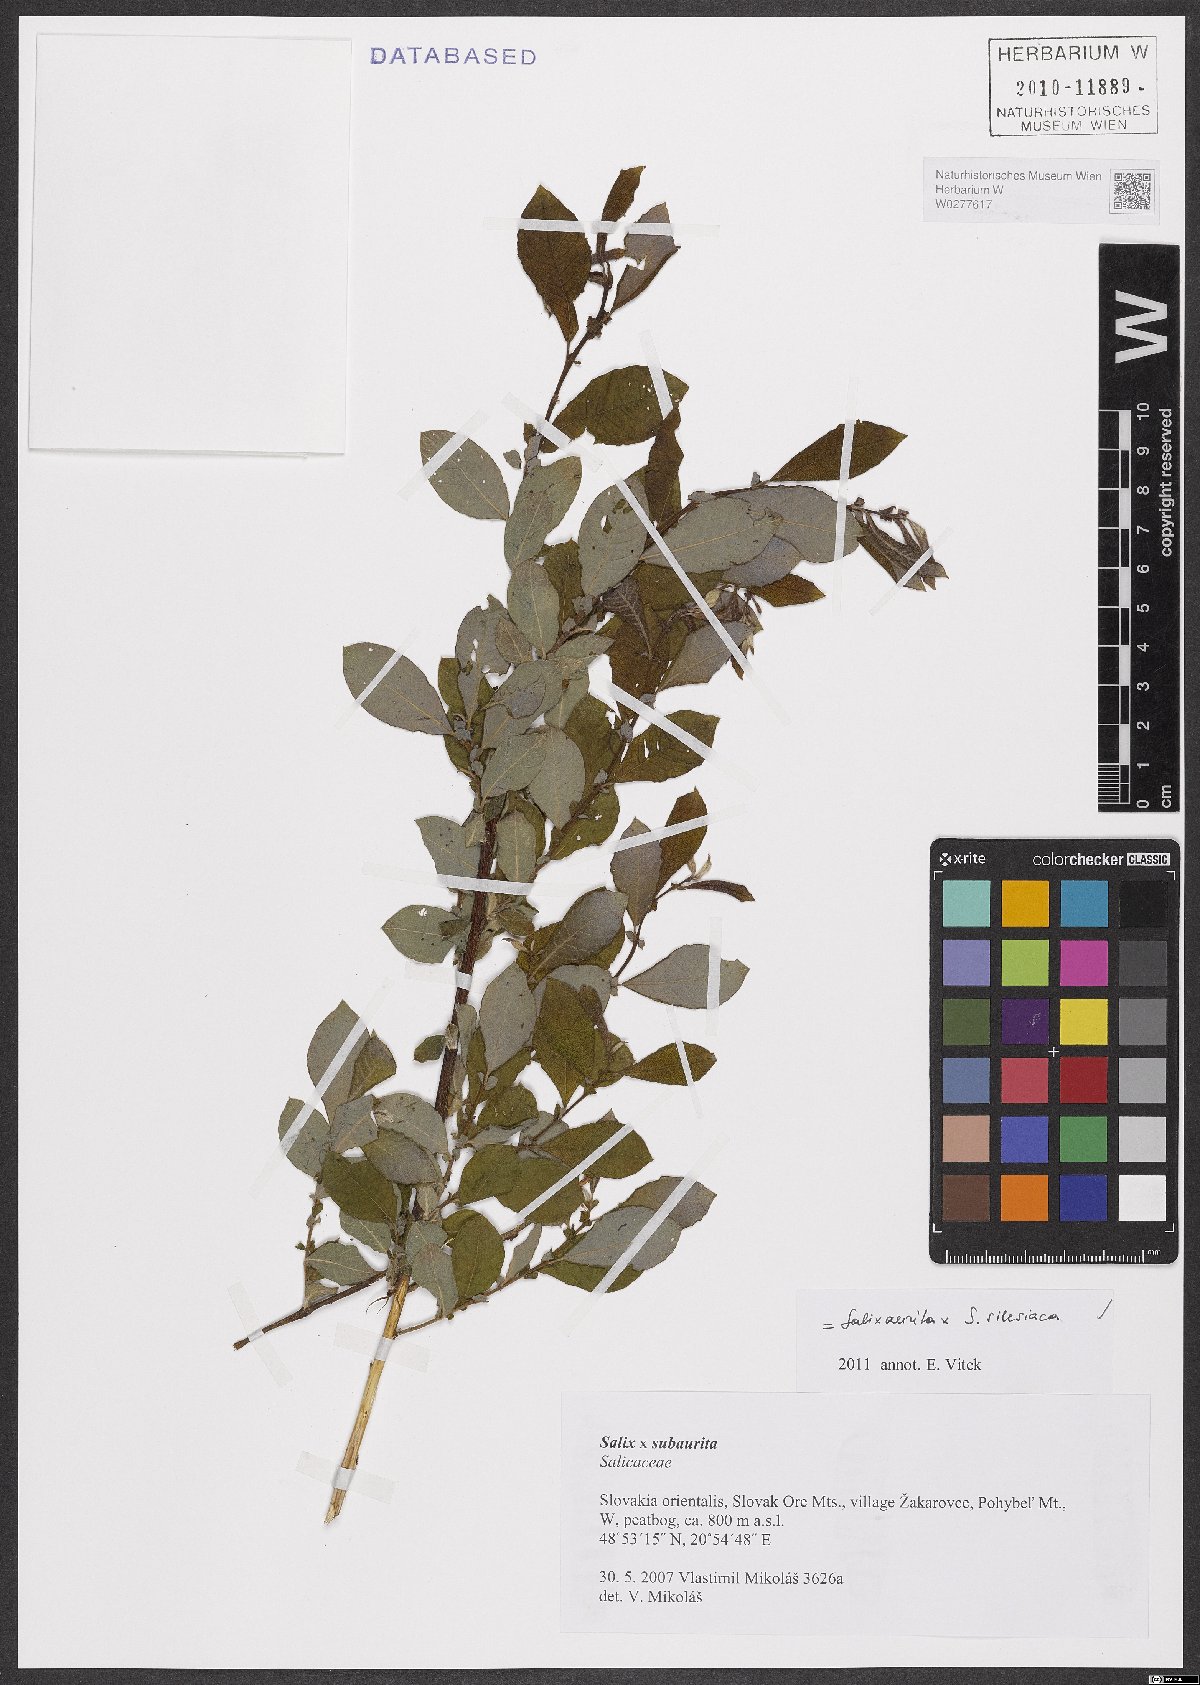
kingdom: Plantae
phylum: Tracheophyta
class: Magnoliopsida
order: Malpighiales
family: Salicaceae
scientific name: Salicaceae
